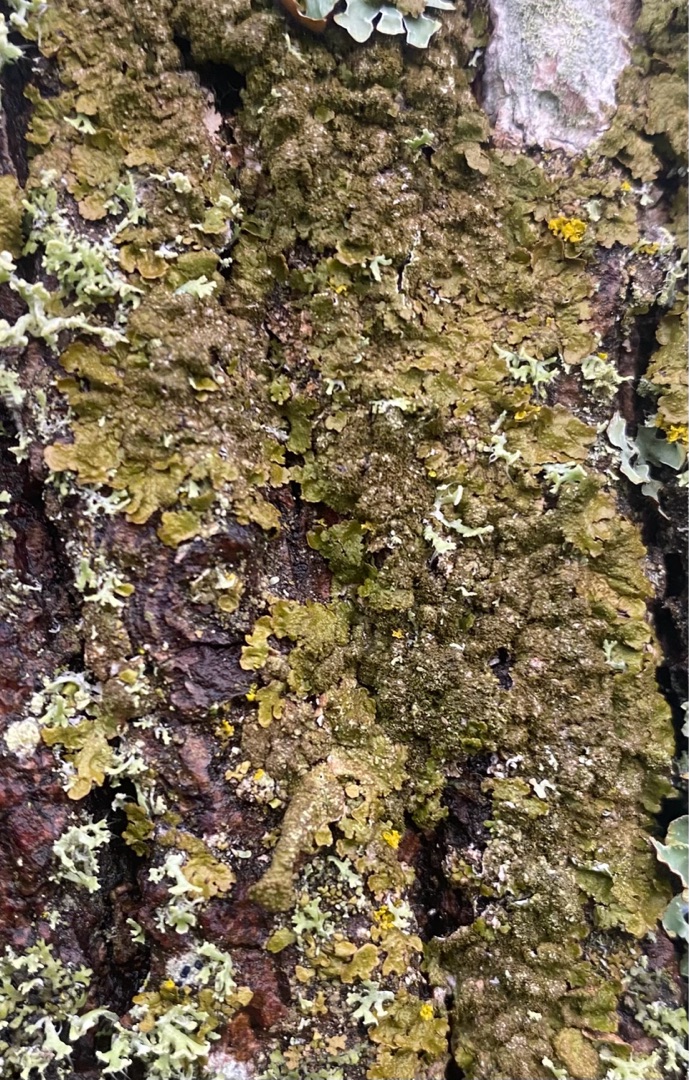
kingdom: Fungi
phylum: Ascomycota
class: Lecanoromycetes
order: Lecanorales
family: Parmeliaceae
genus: Melanelixia
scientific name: Melanelixia glabratula
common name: Glinsende skållav
